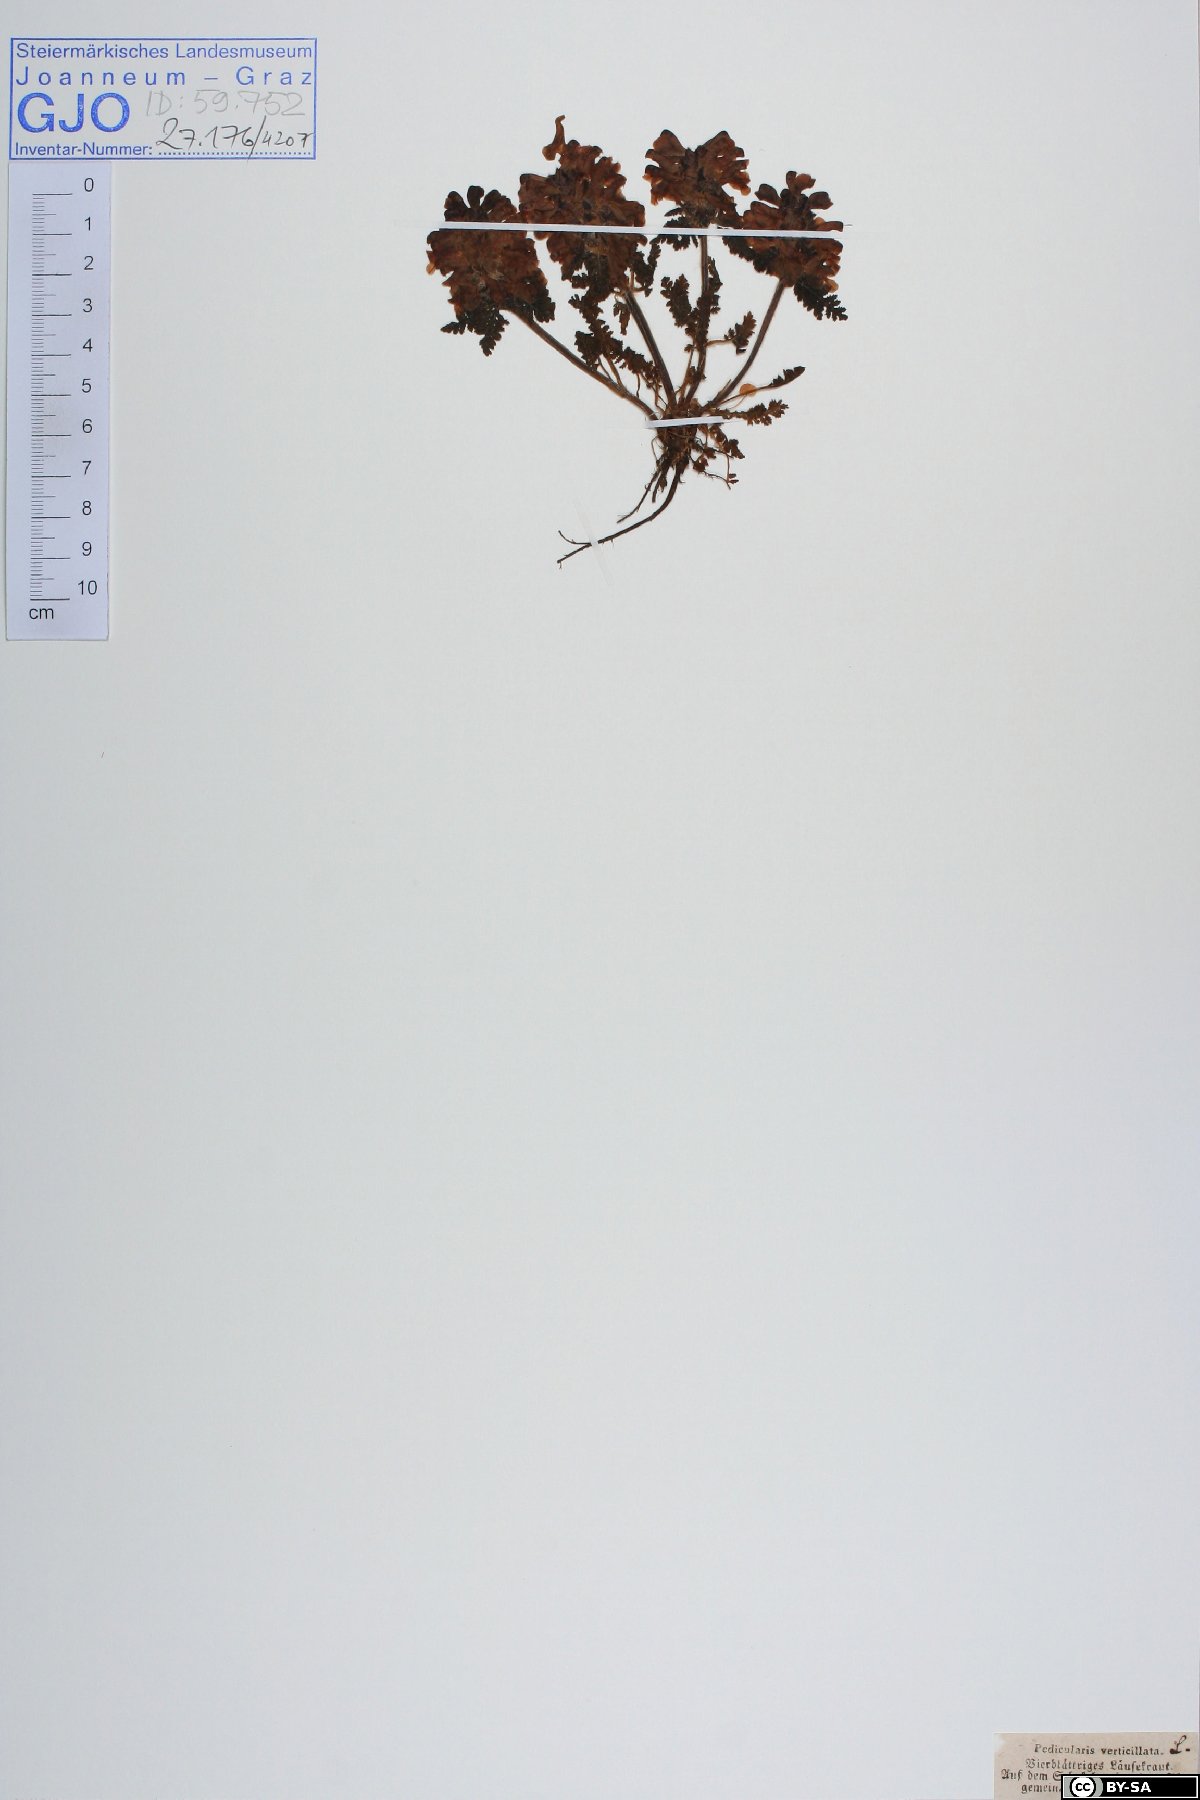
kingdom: Plantae
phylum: Tracheophyta
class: Magnoliopsida
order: Lamiales
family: Orobanchaceae
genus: Pedicularis
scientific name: Pedicularis verticillata
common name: Whorled lousewort
